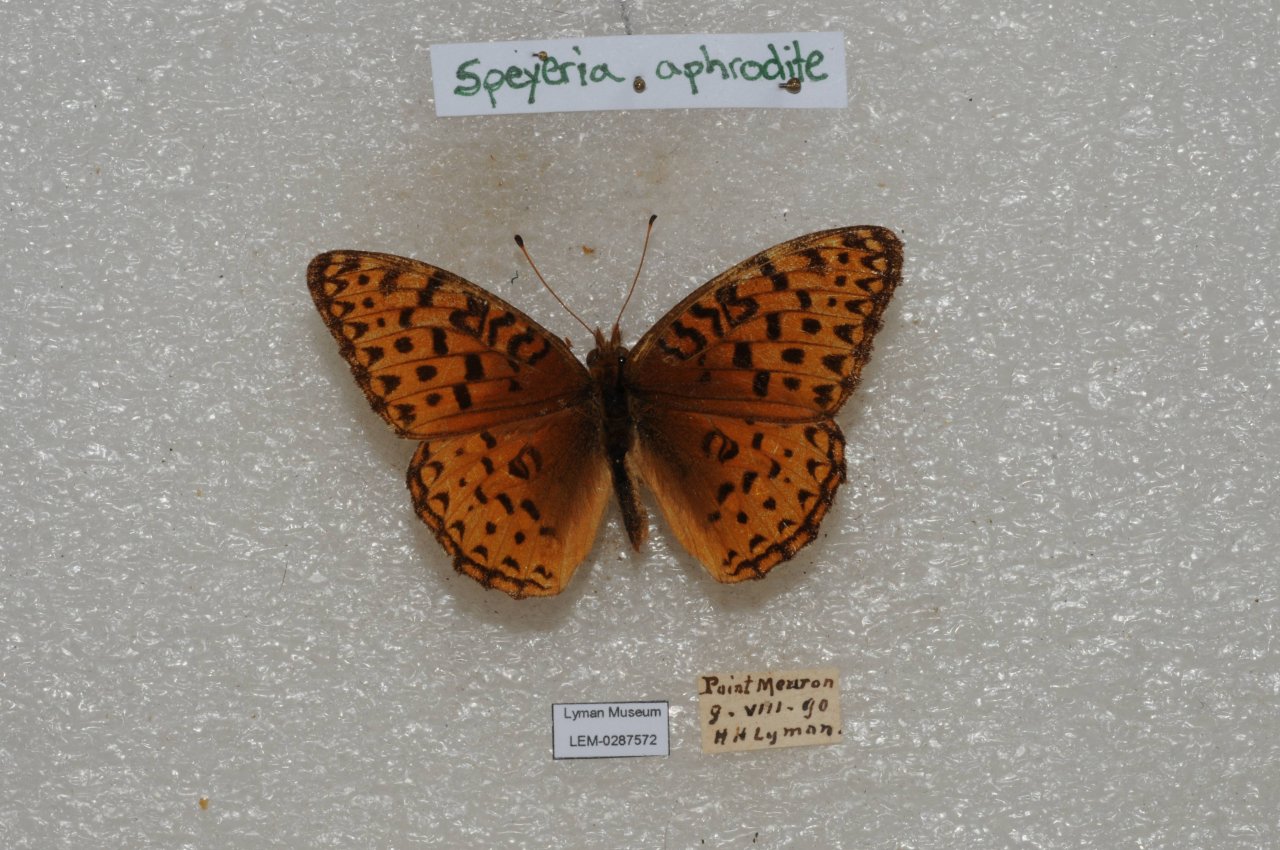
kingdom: Animalia
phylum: Arthropoda
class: Insecta
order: Lepidoptera
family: Nymphalidae
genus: Speyeria
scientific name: Speyeria aphrodite
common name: Aphrodite Fritillary
